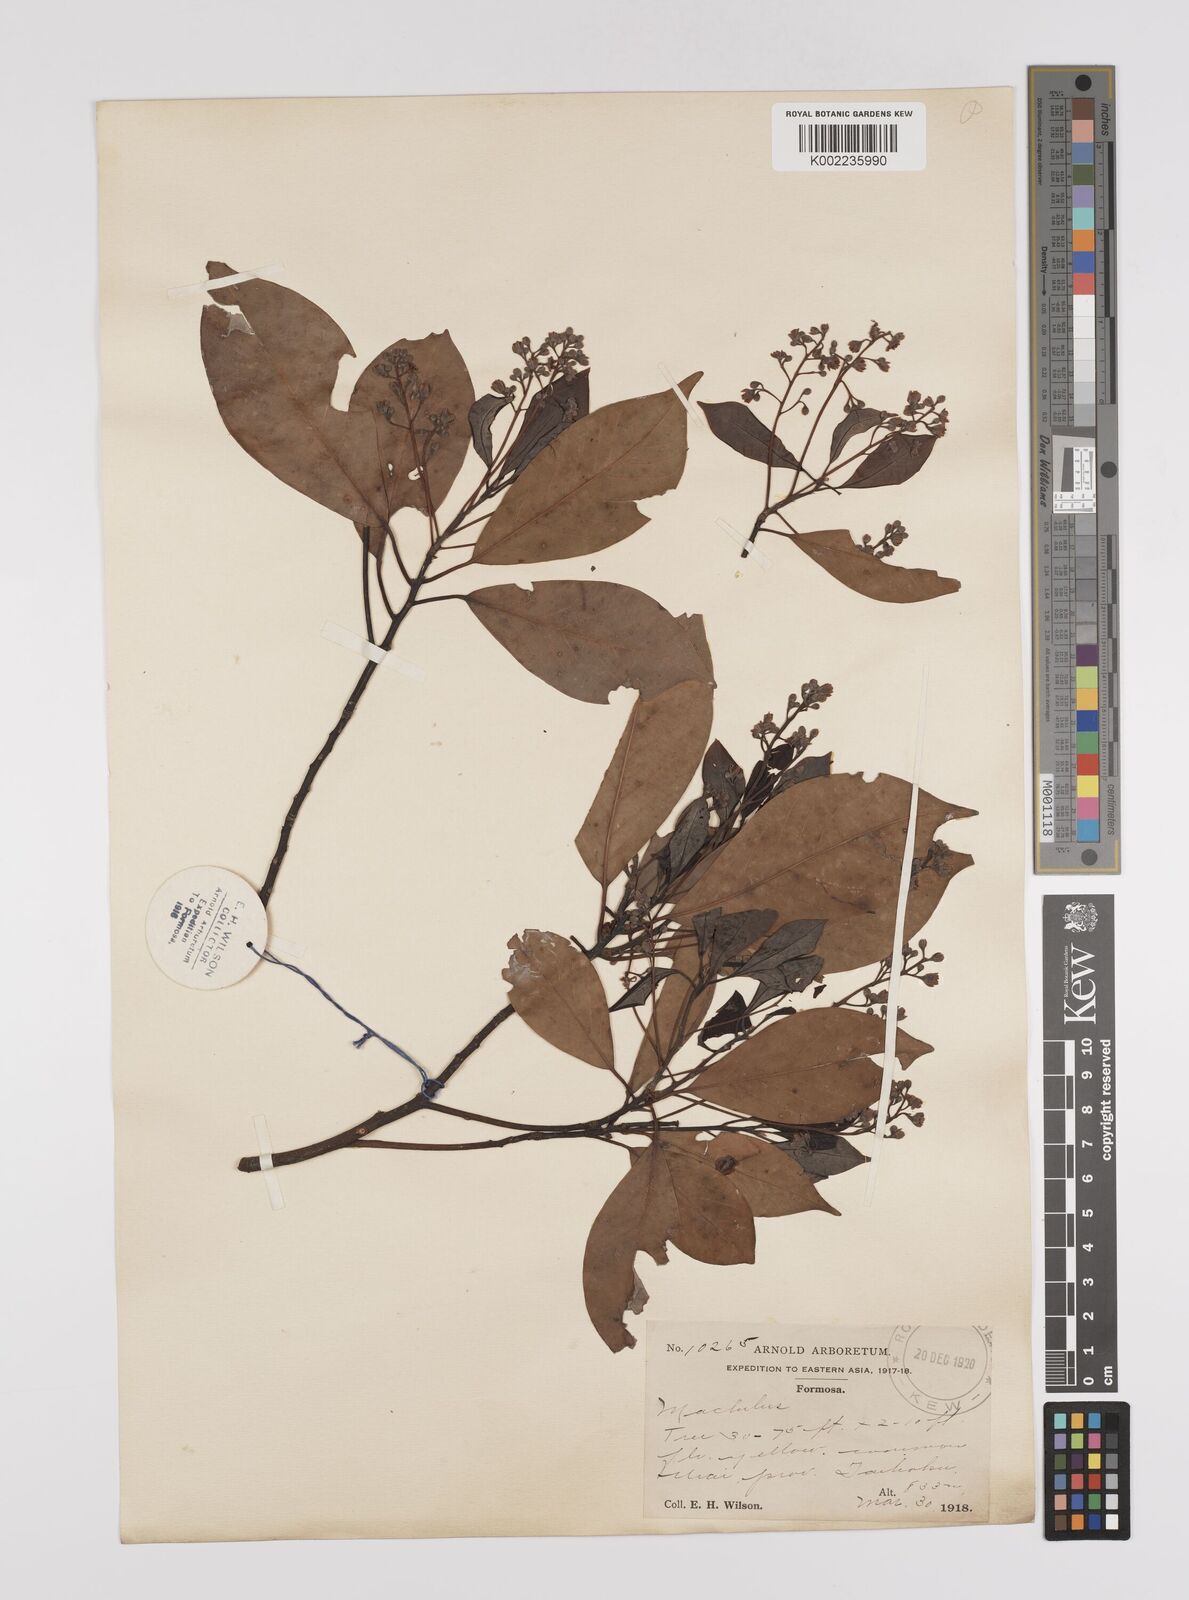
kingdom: Plantae
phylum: Tracheophyta
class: Magnoliopsida
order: Laurales
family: Lauraceae
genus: Persea
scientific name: Persea
